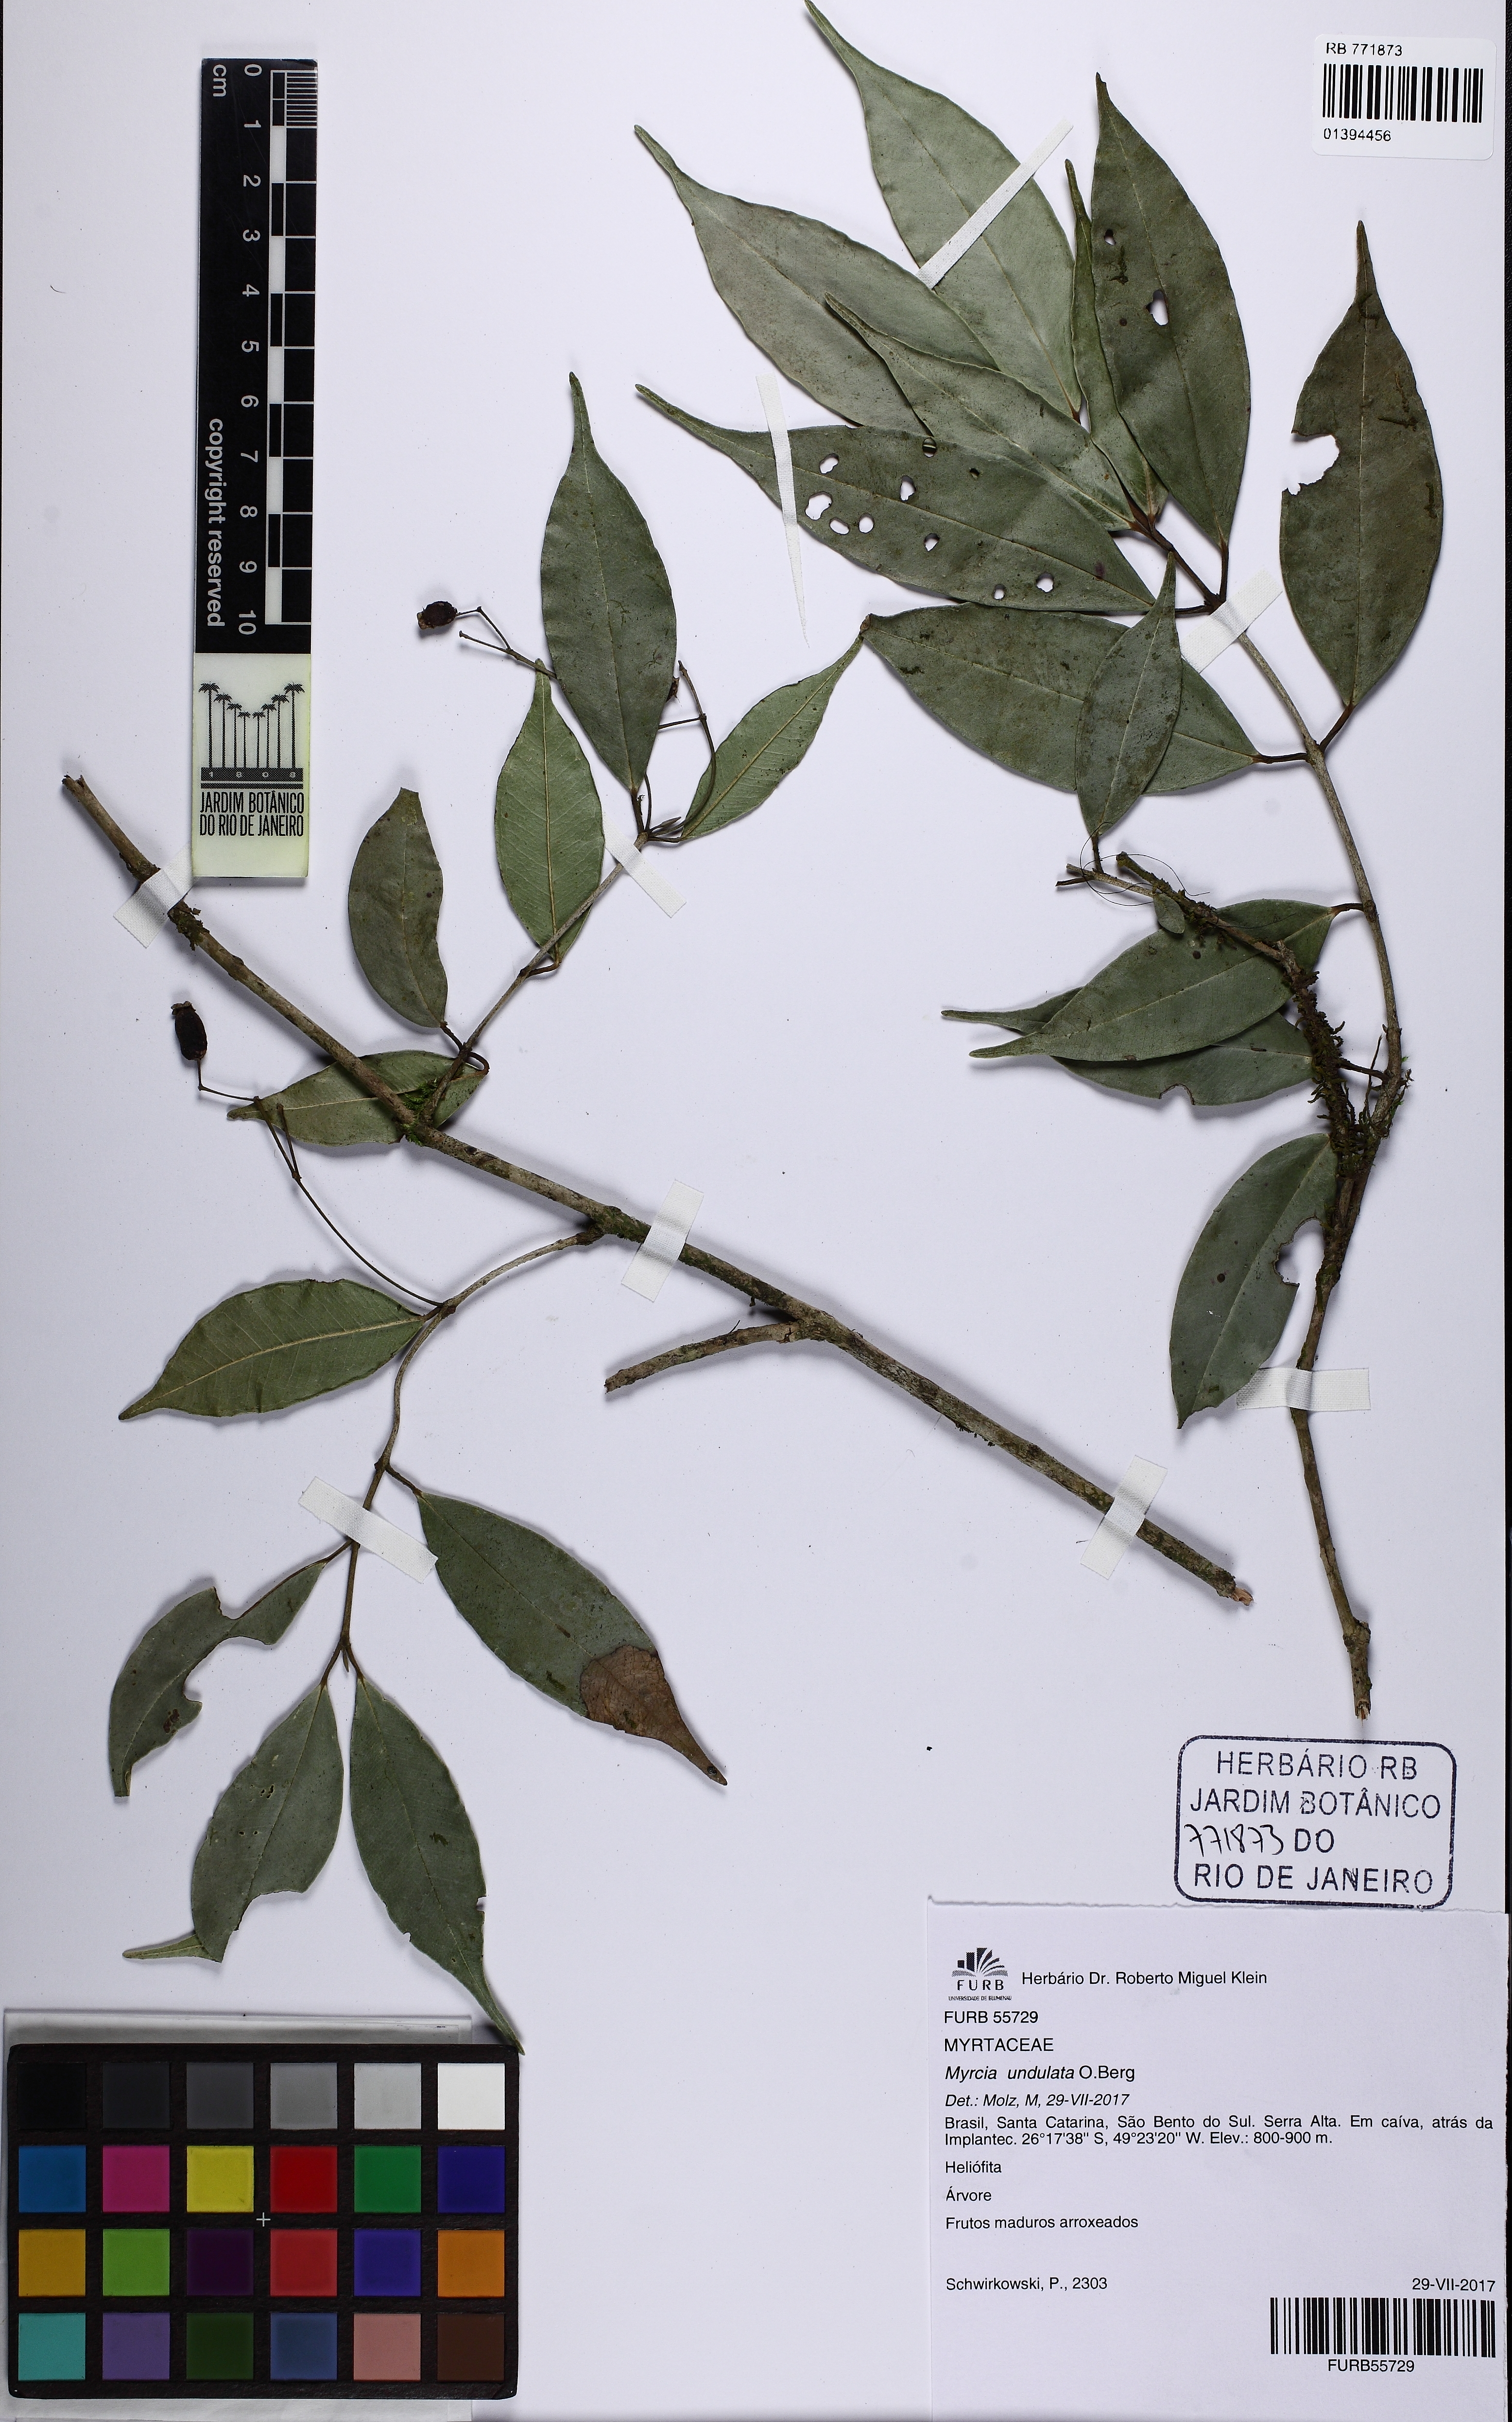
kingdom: Plantae
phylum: Tracheophyta
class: Magnoliopsida
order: Myrtales
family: Myrtaceae
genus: Myrcia
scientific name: Myrcia undulata
